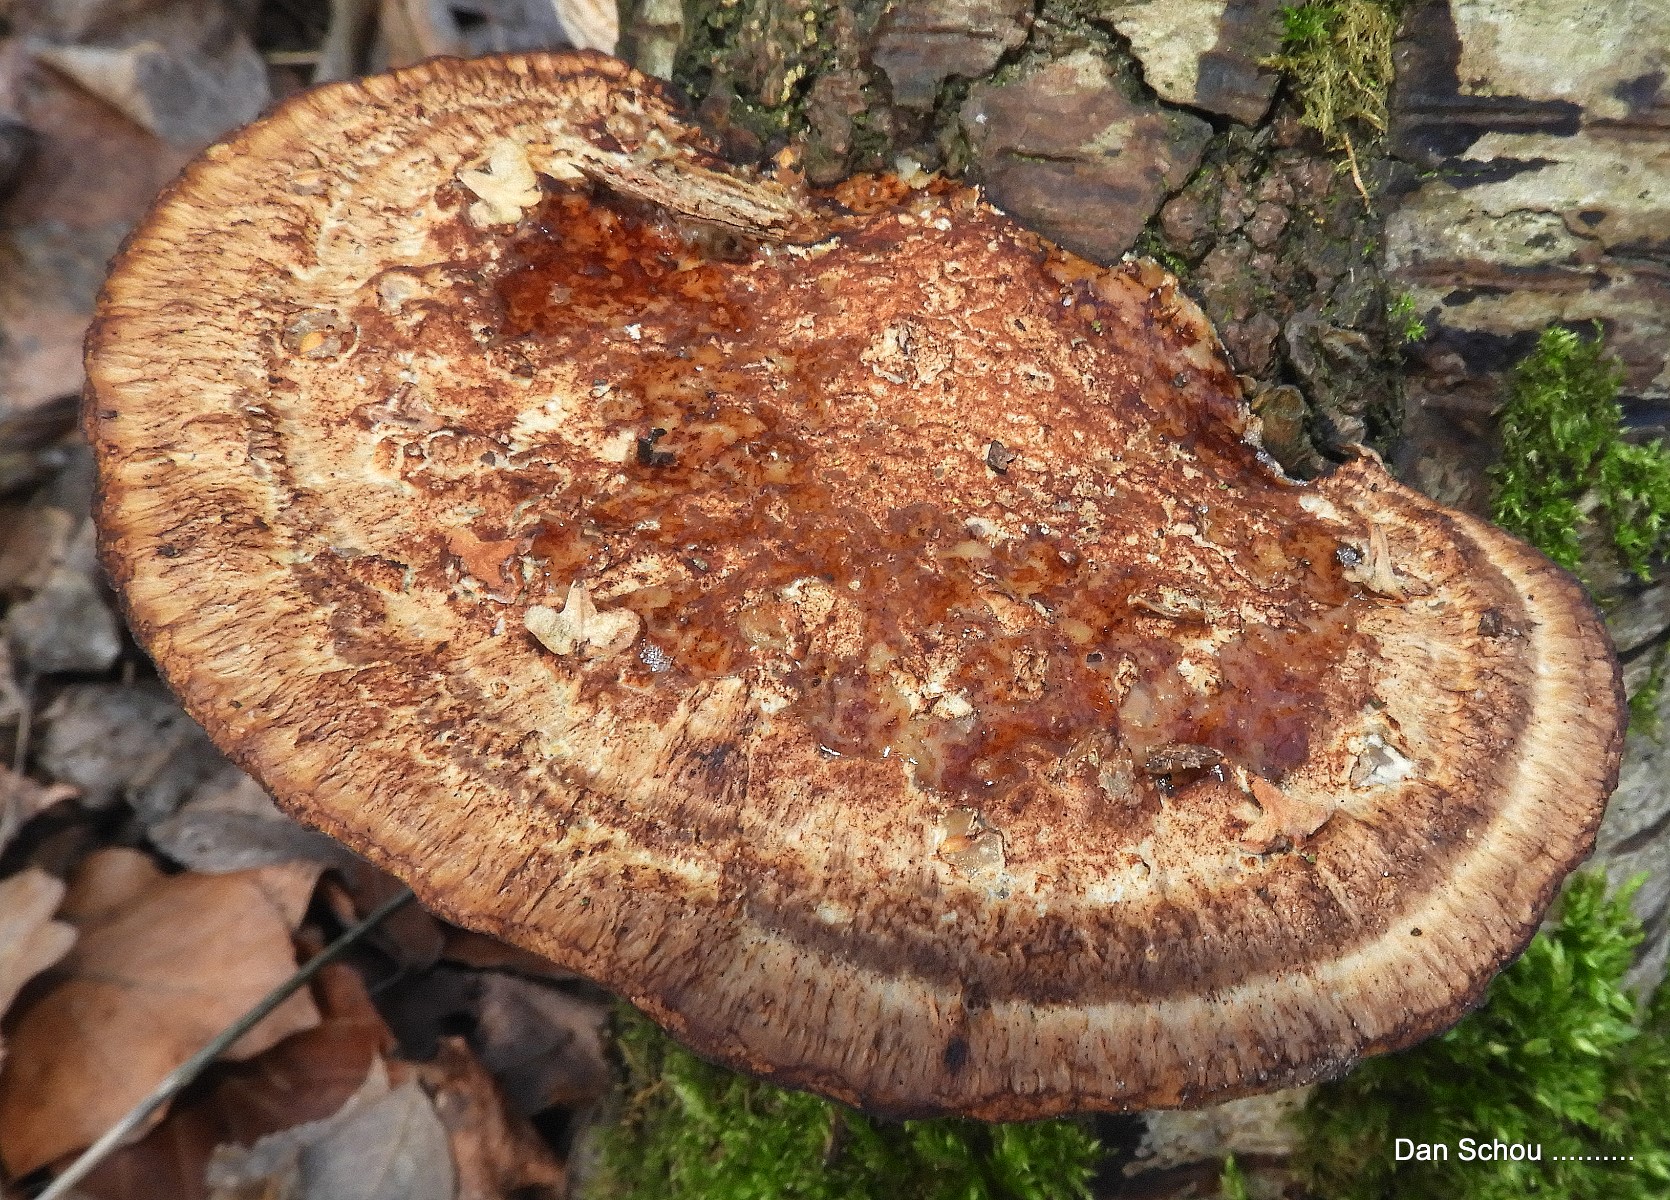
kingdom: Fungi
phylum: Basidiomycota
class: Agaricomycetes
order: Polyporales
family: Polyporaceae
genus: Daedaleopsis
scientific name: Daedaleopsis confragosa
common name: rødmende læderporesvamp
